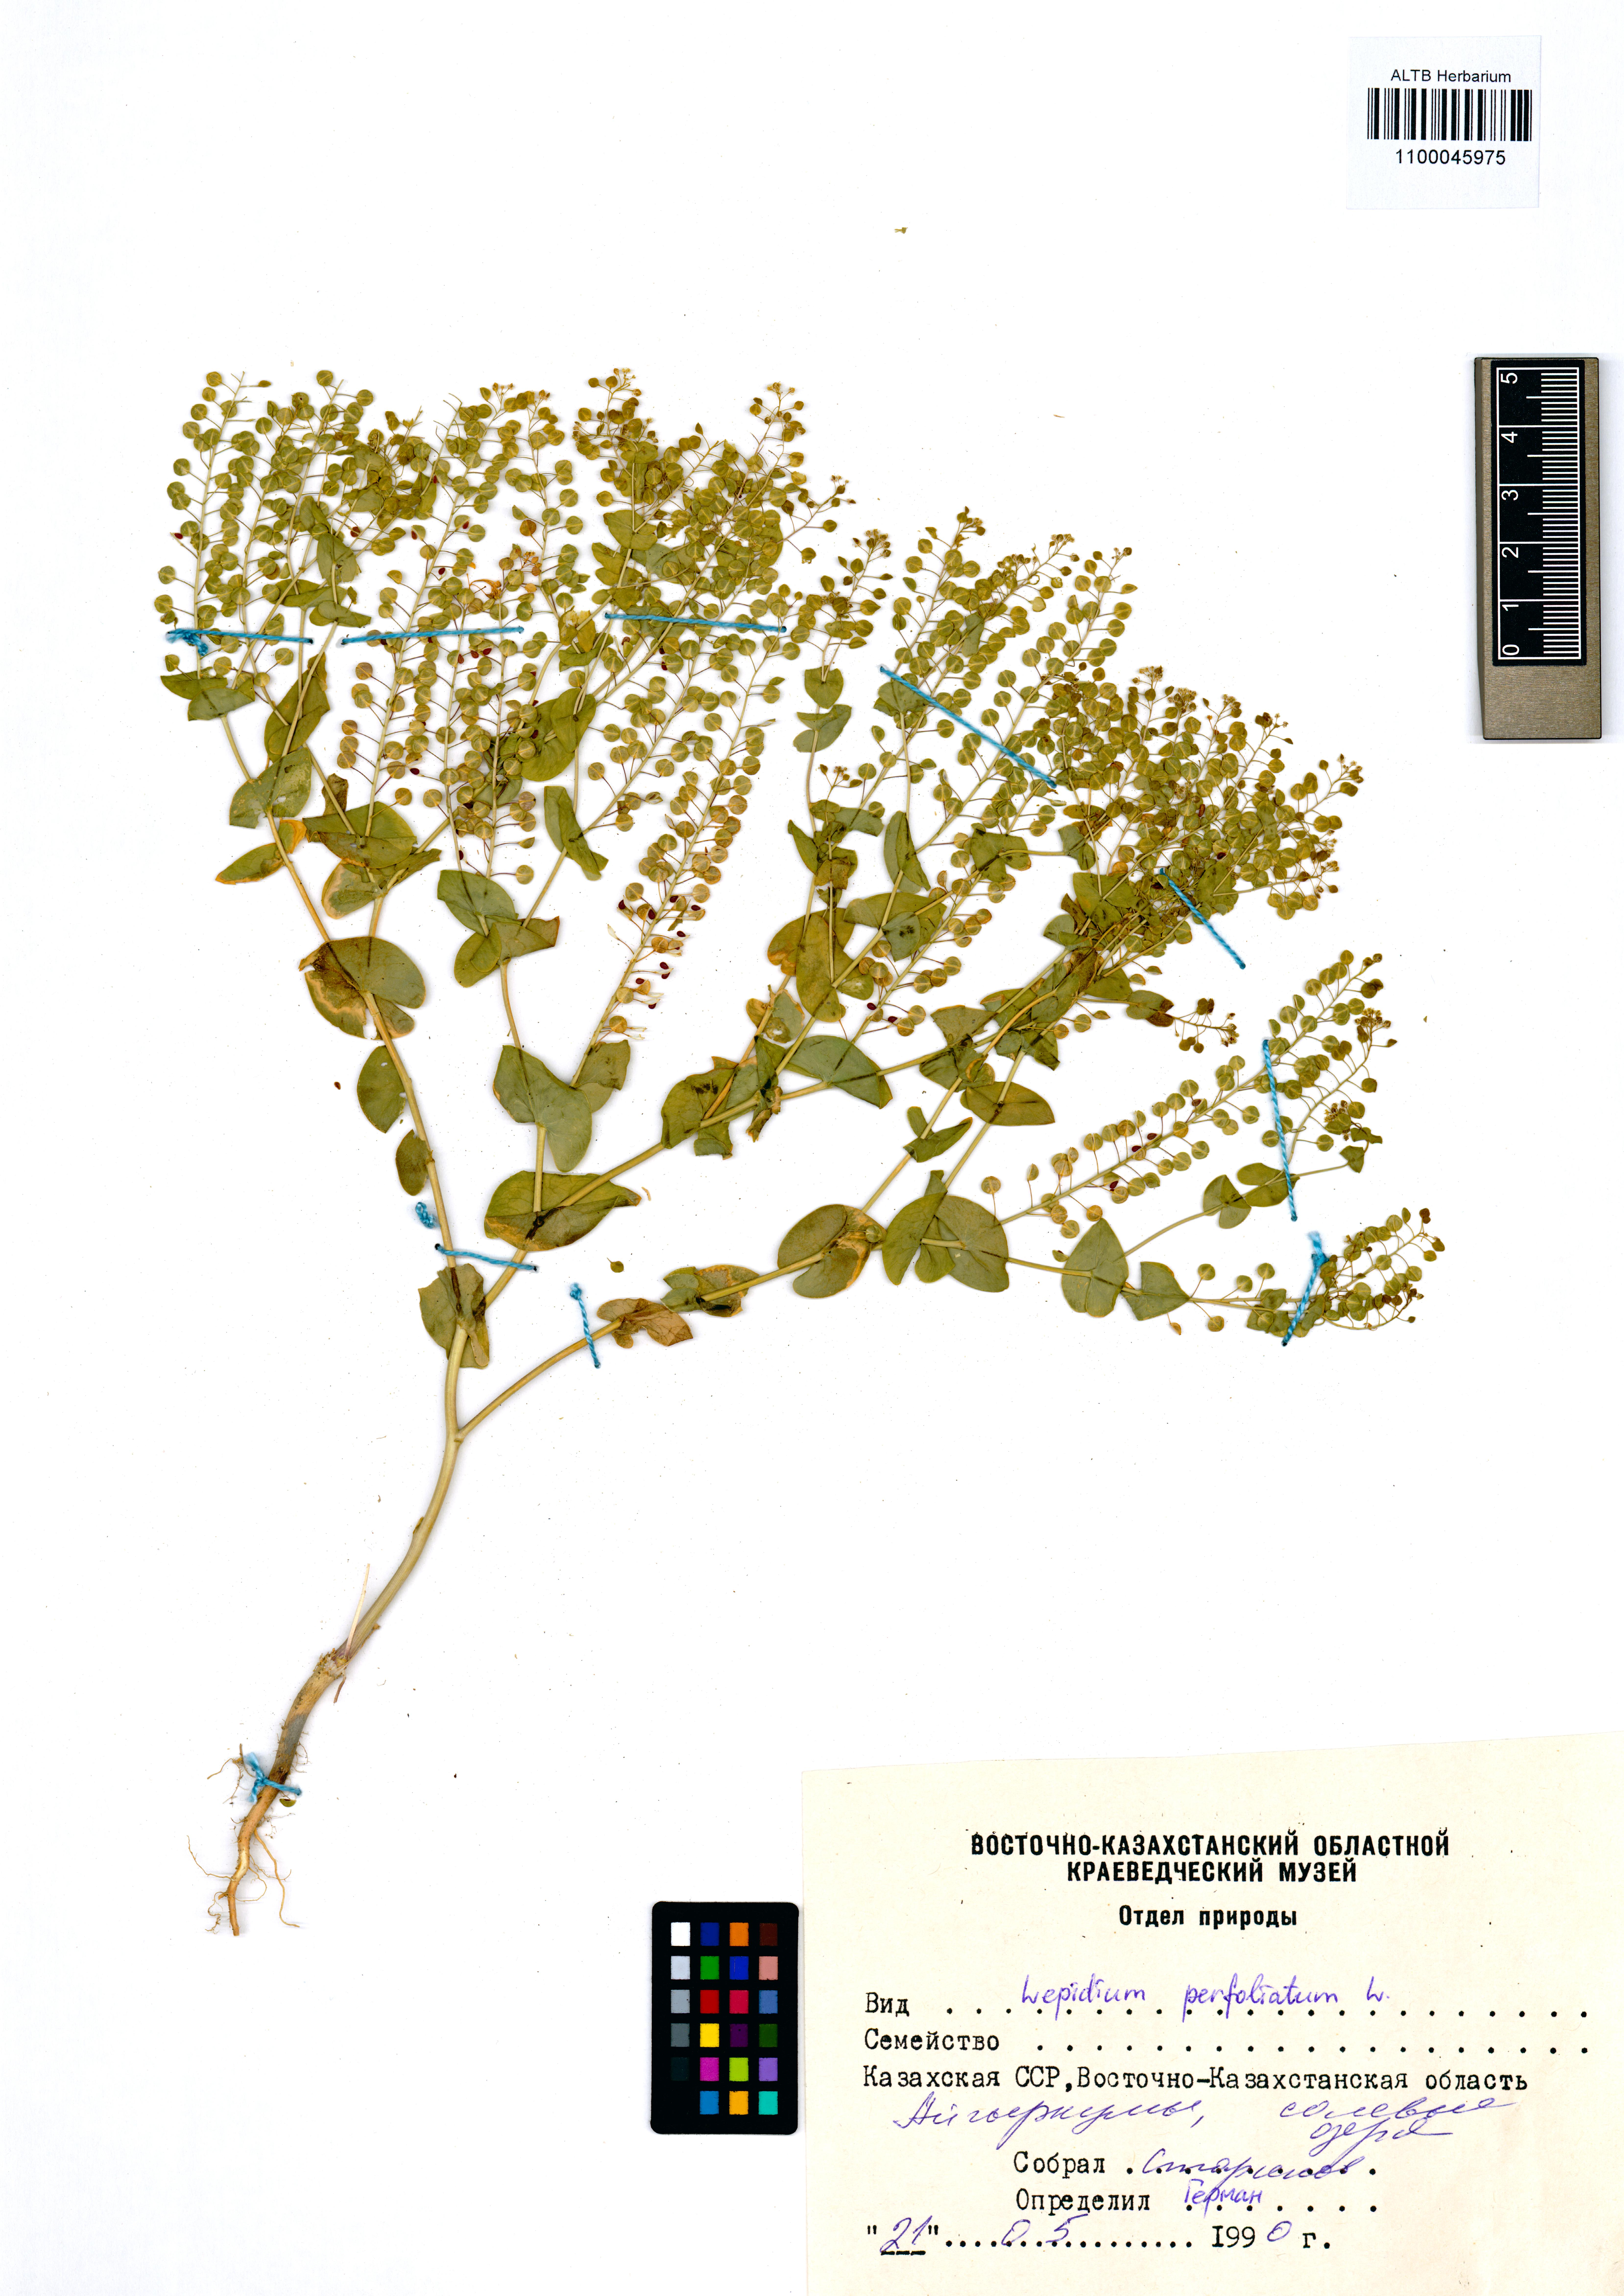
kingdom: Plantae
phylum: Tracheophyta
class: Liliopsida
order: Asparagales
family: Iridaceae
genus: Iris
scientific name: Iris ruthenica
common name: Purple-bract iris
